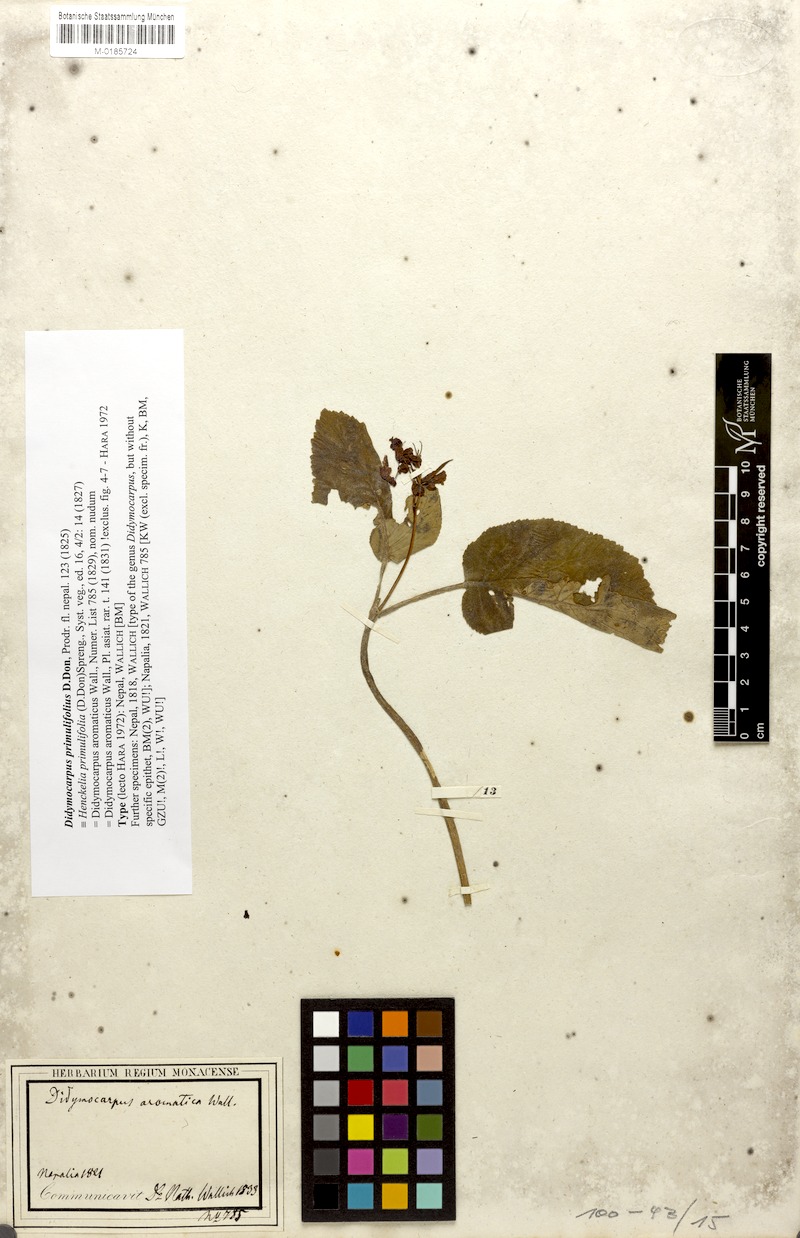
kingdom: Plantae
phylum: Tracheophyta
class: Magnoliopsida
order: Lamiales
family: Gesneriaceae
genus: Didymocarpus
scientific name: Didymocarpus primulifolius
